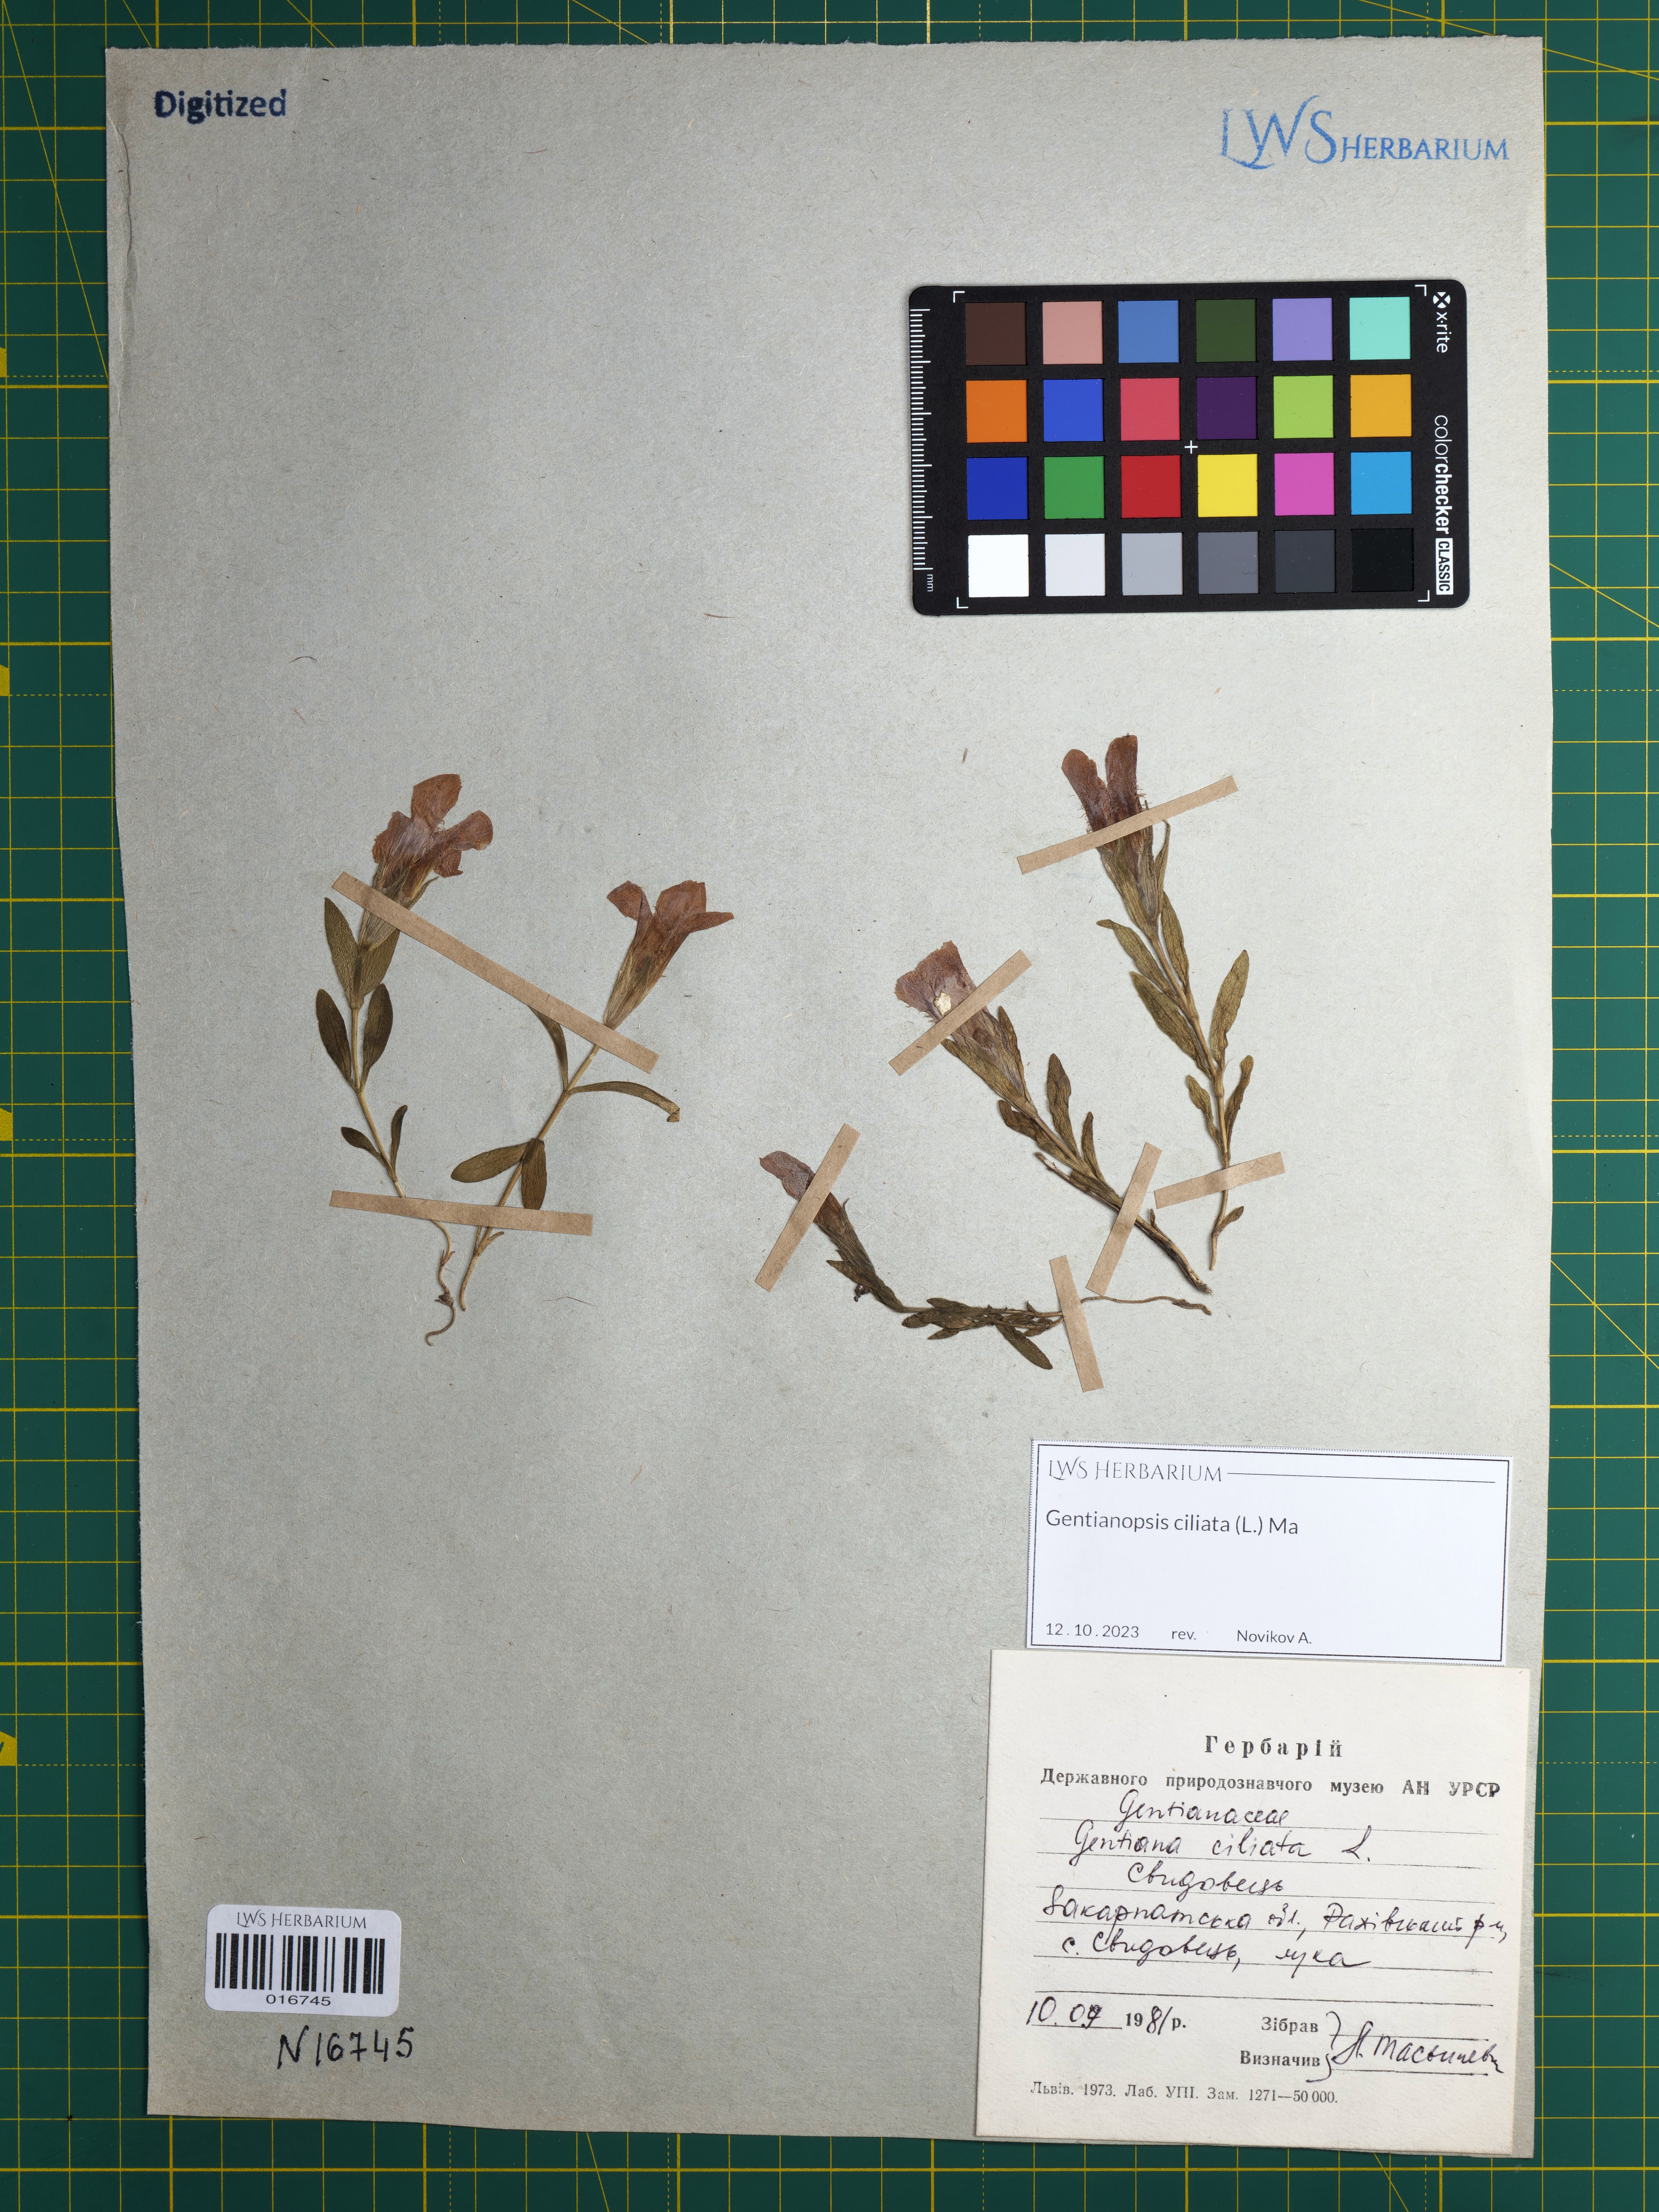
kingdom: Plantae
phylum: Tracheophyta
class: Magnoliopsida
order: Gentianales
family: Gentianaceae
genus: Gentianopsis
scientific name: Gentianopsis ciliata
